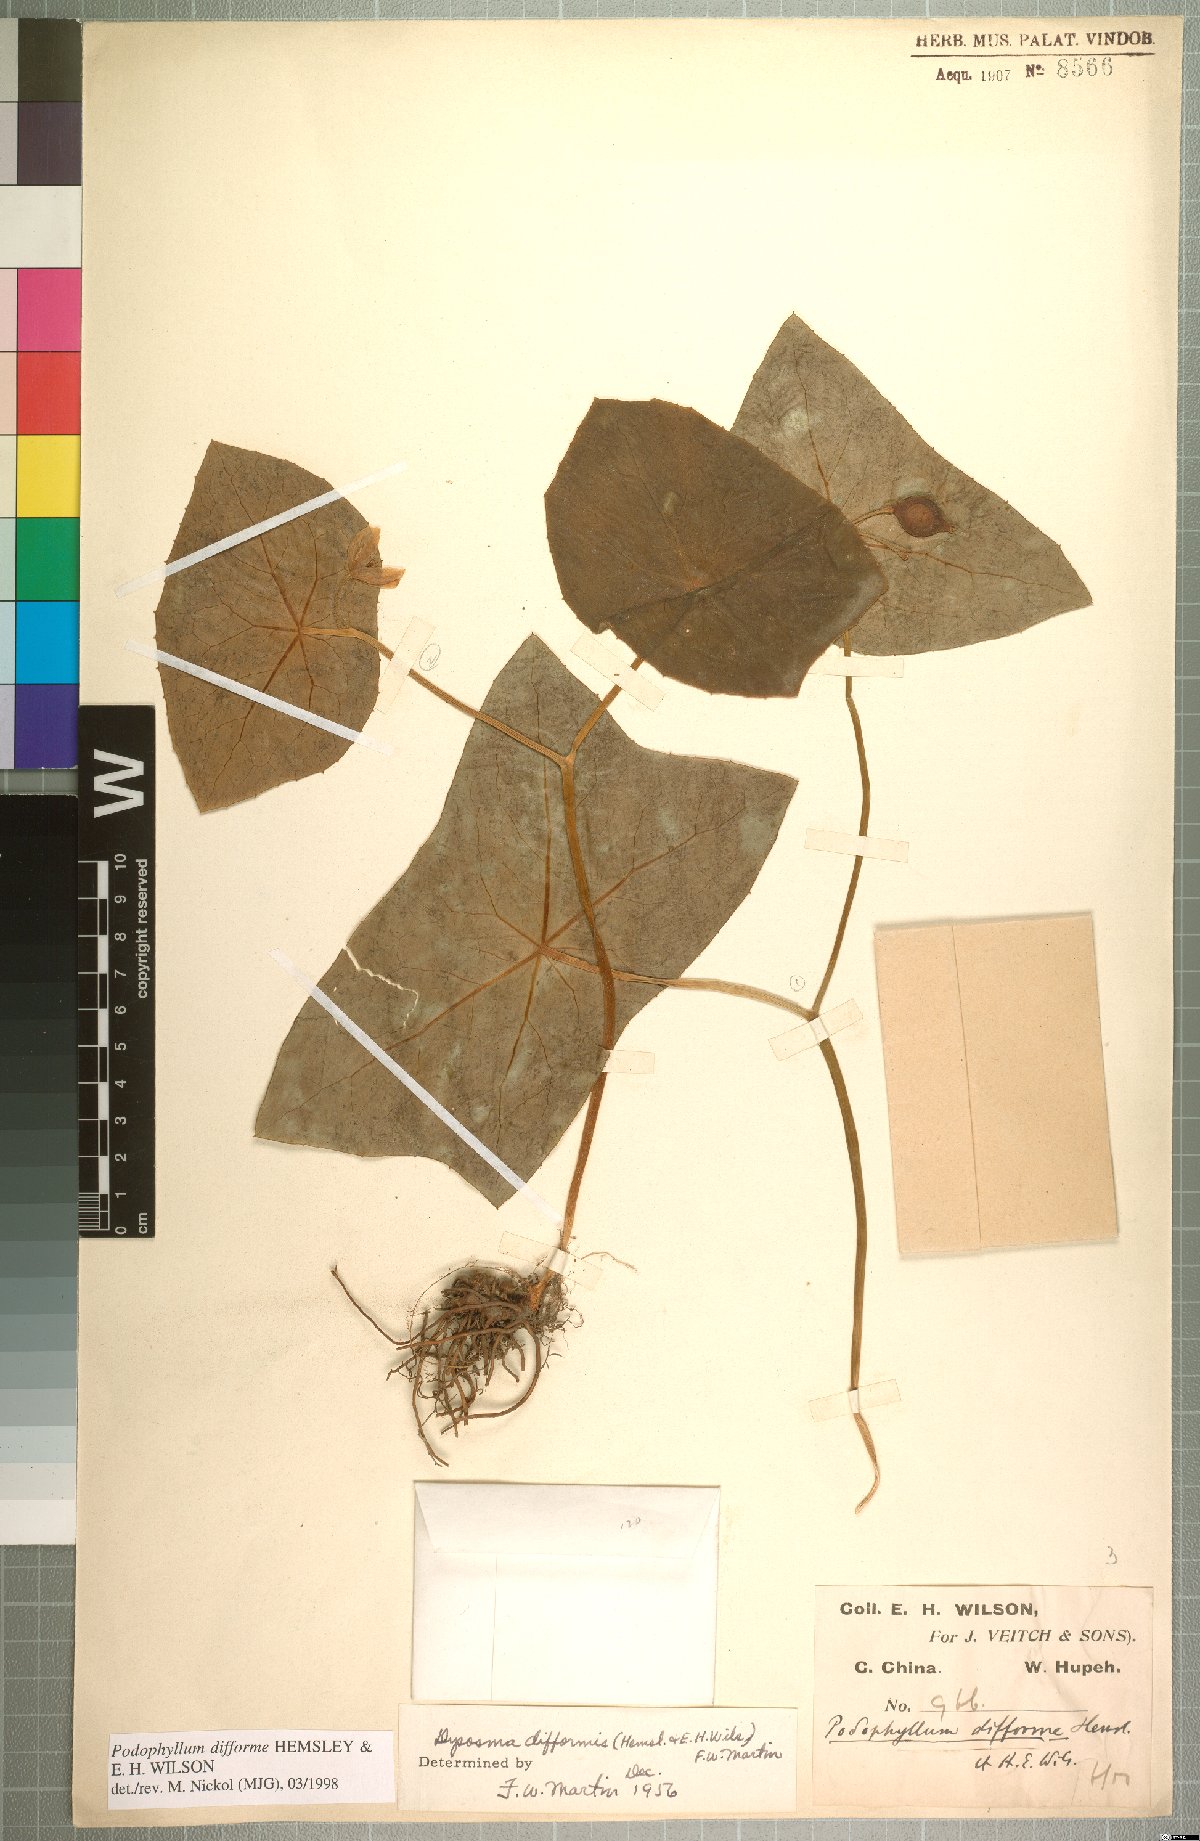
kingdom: Plantae
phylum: Tracheophyta
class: Magnoliopsida
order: Ranunculales
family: Berberidaceae
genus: Dysosma
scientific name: Dysosma difformis
